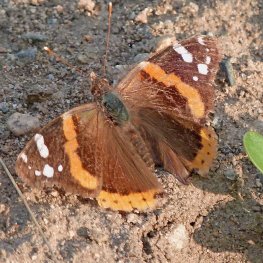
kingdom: Animalia
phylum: Arthropoda
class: Insecta
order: Lepidoptera
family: Nymphalidae
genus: Vanessa
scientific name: Vanessa atalanta
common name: Red Admiral
